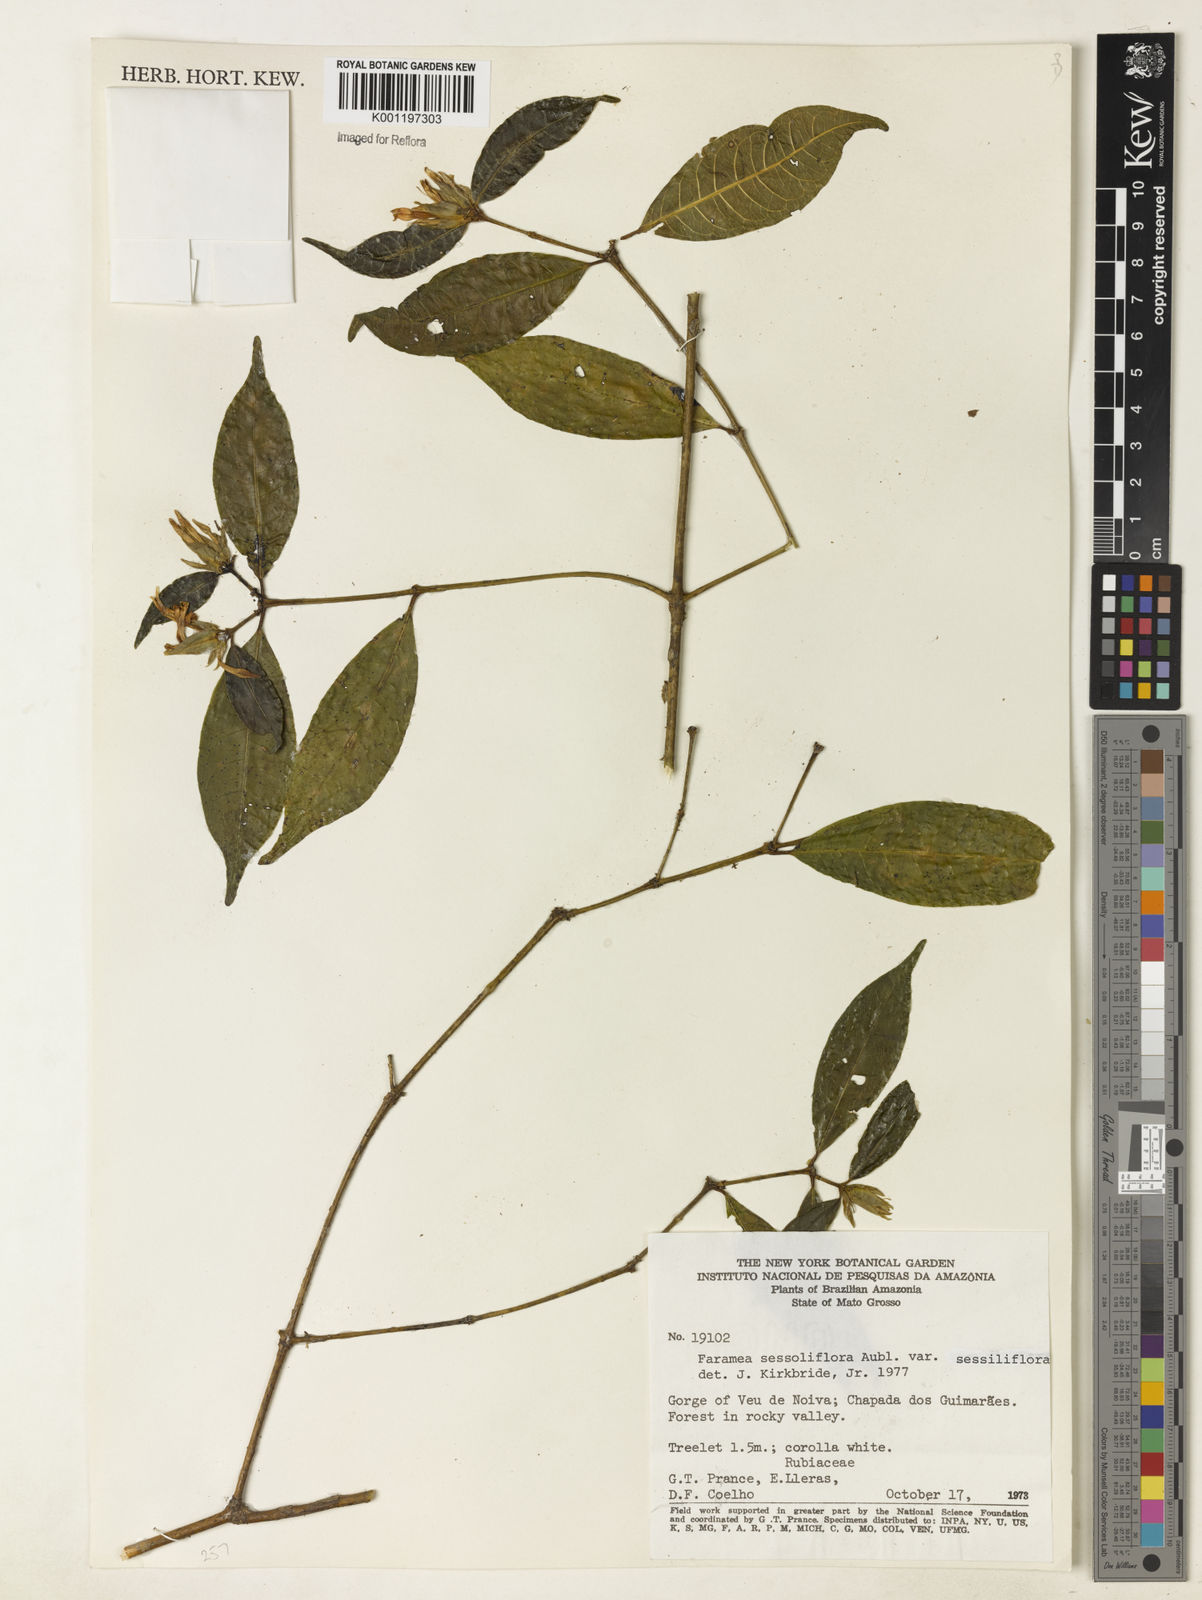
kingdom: Plantae
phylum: Tracheophyta
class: Magnoliopsida
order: Gentianales
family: Rubiaceae
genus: Faramea
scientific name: Faramea sessiliflora
